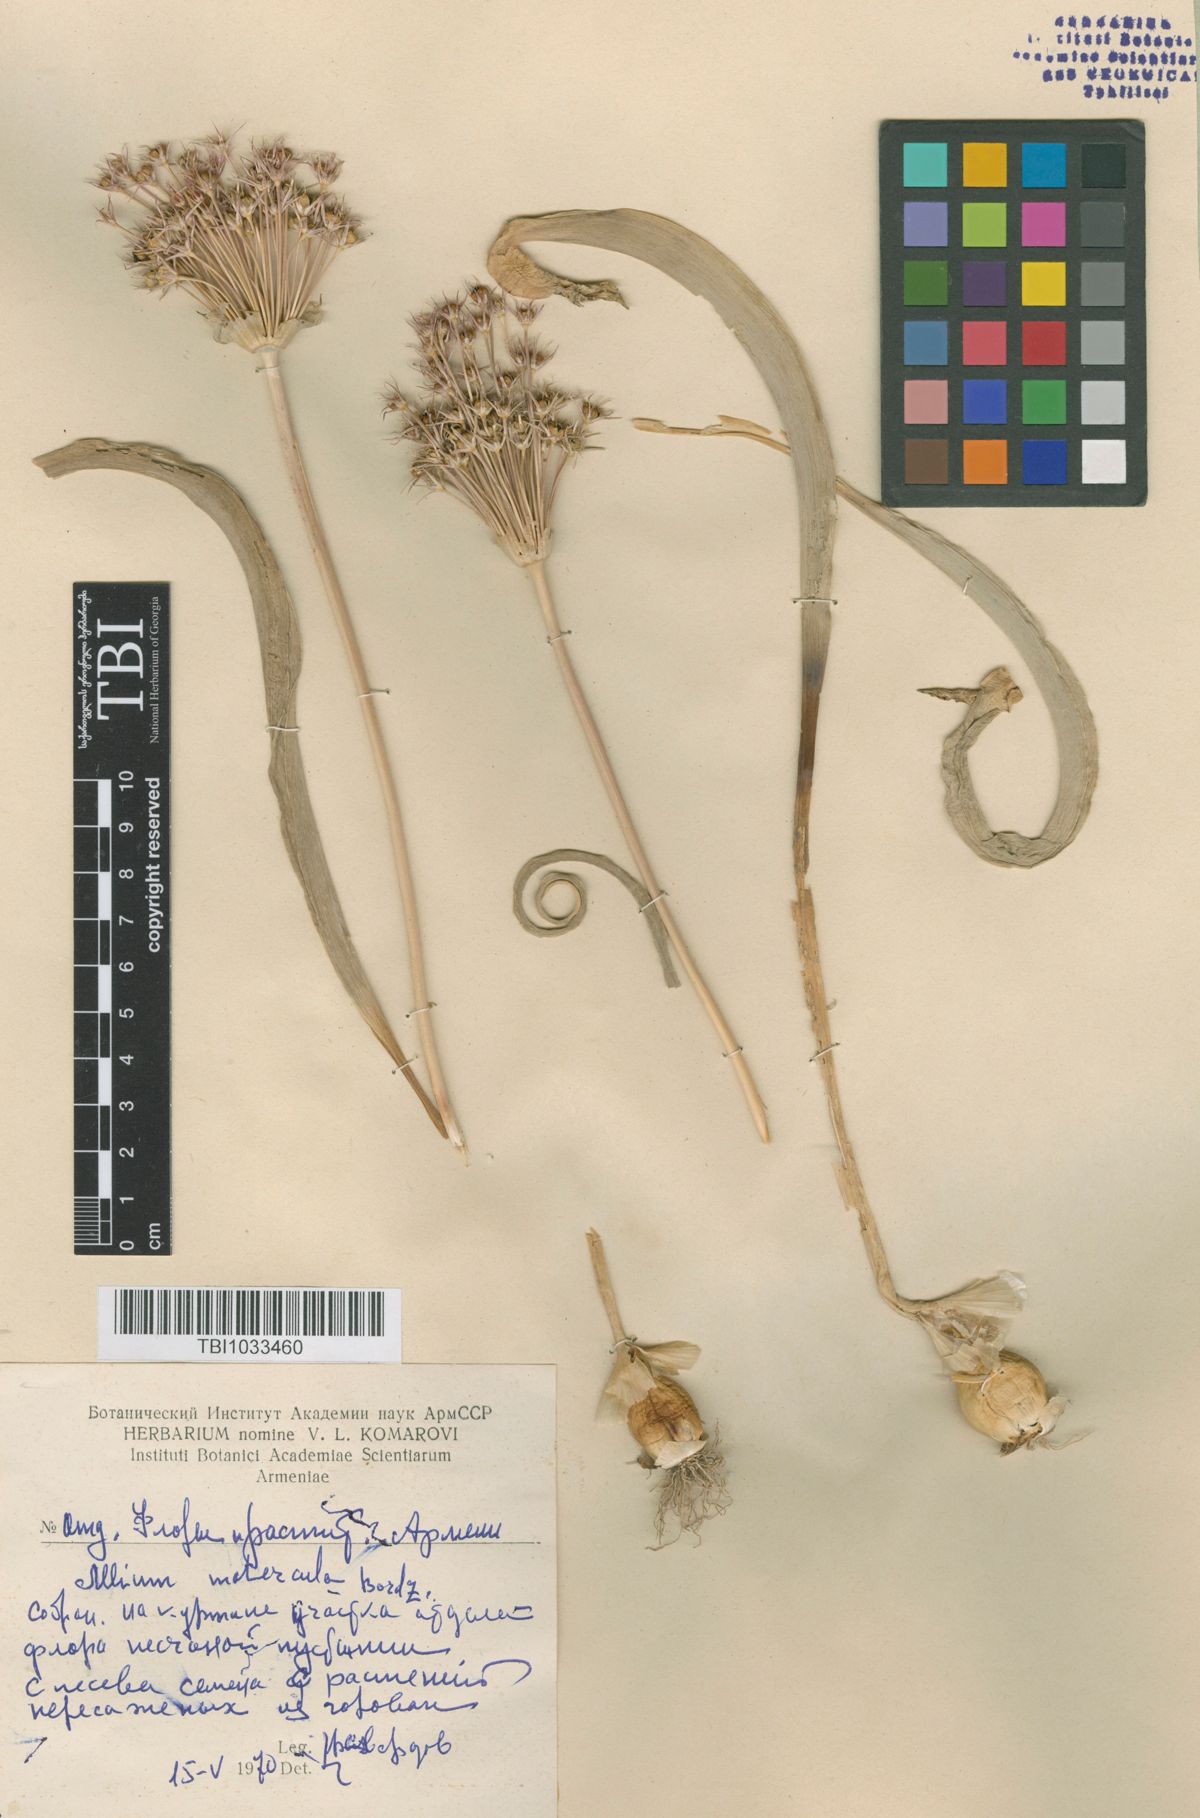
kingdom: Plantae
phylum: Tracheophyta
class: Liliopsida
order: Asparagales
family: Amaryllidaceae
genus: Allium
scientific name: Allium materculae
